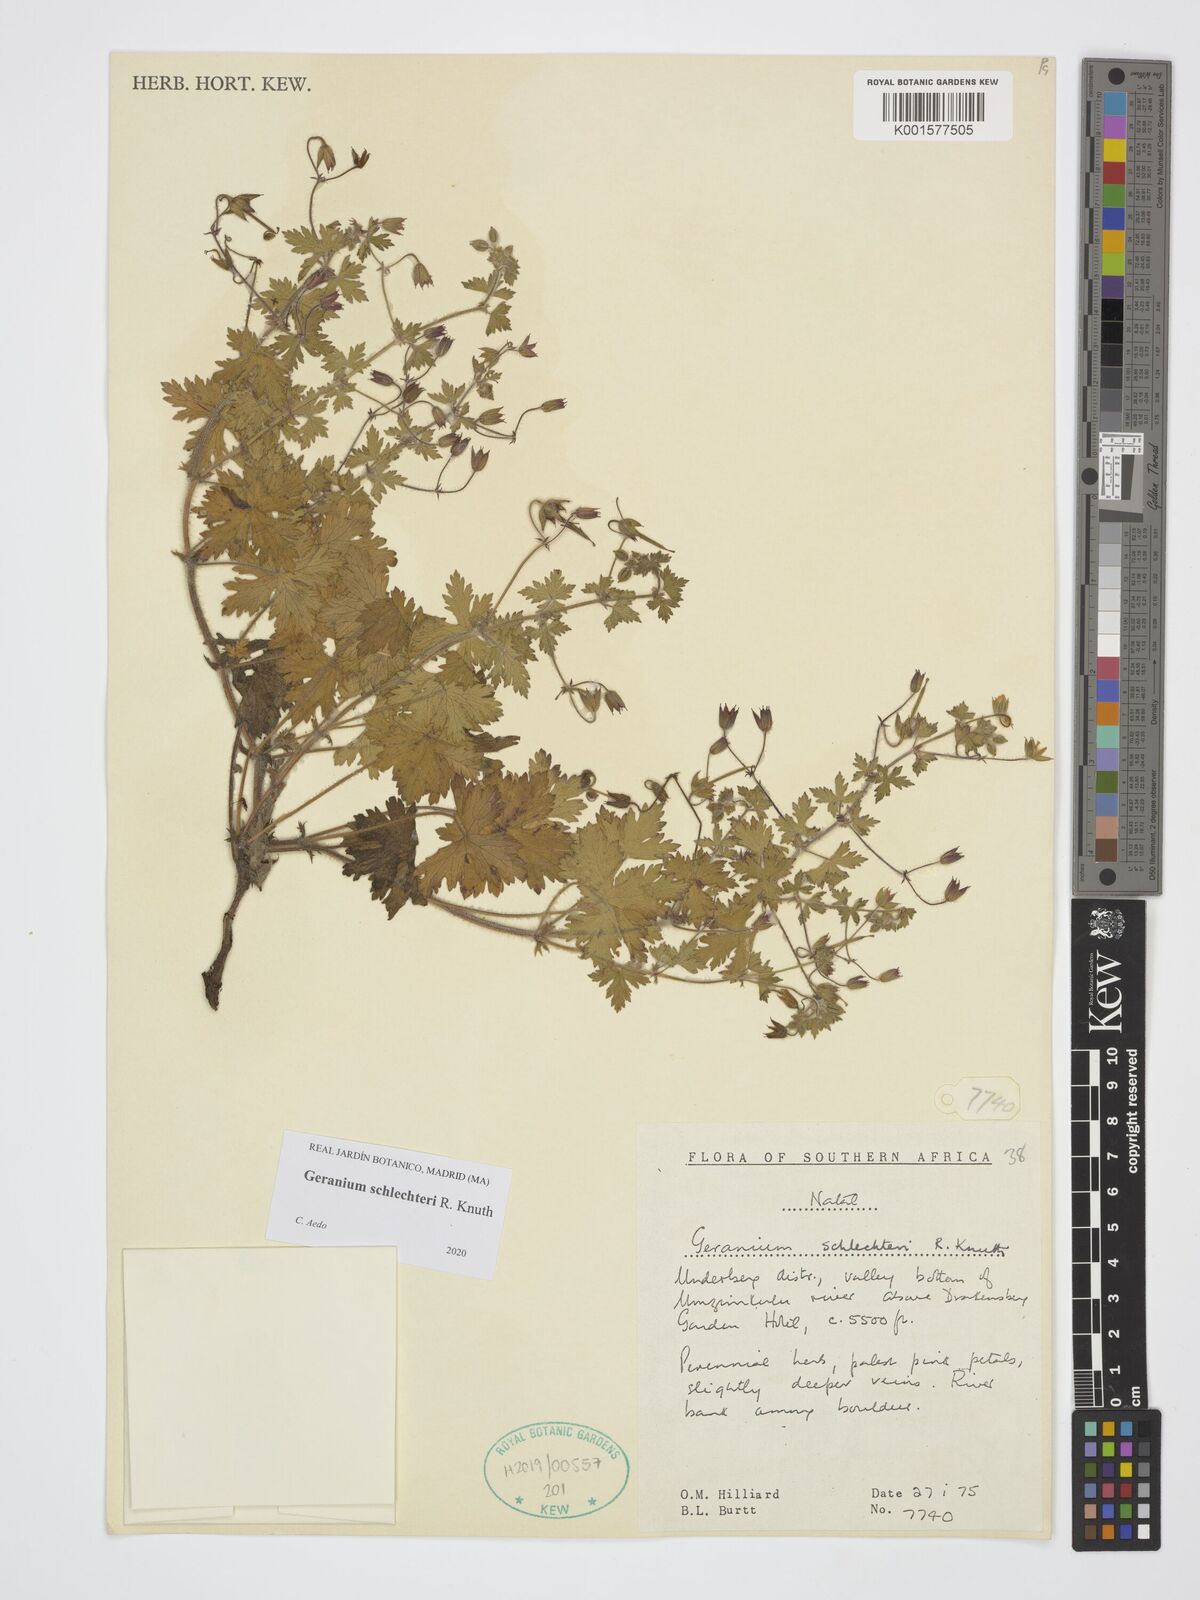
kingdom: Plantae
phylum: Tracheophyta
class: Magnoliopsida
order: Geraniales
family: Geraniaceae
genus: Geranium
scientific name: Geranium schlechteri
